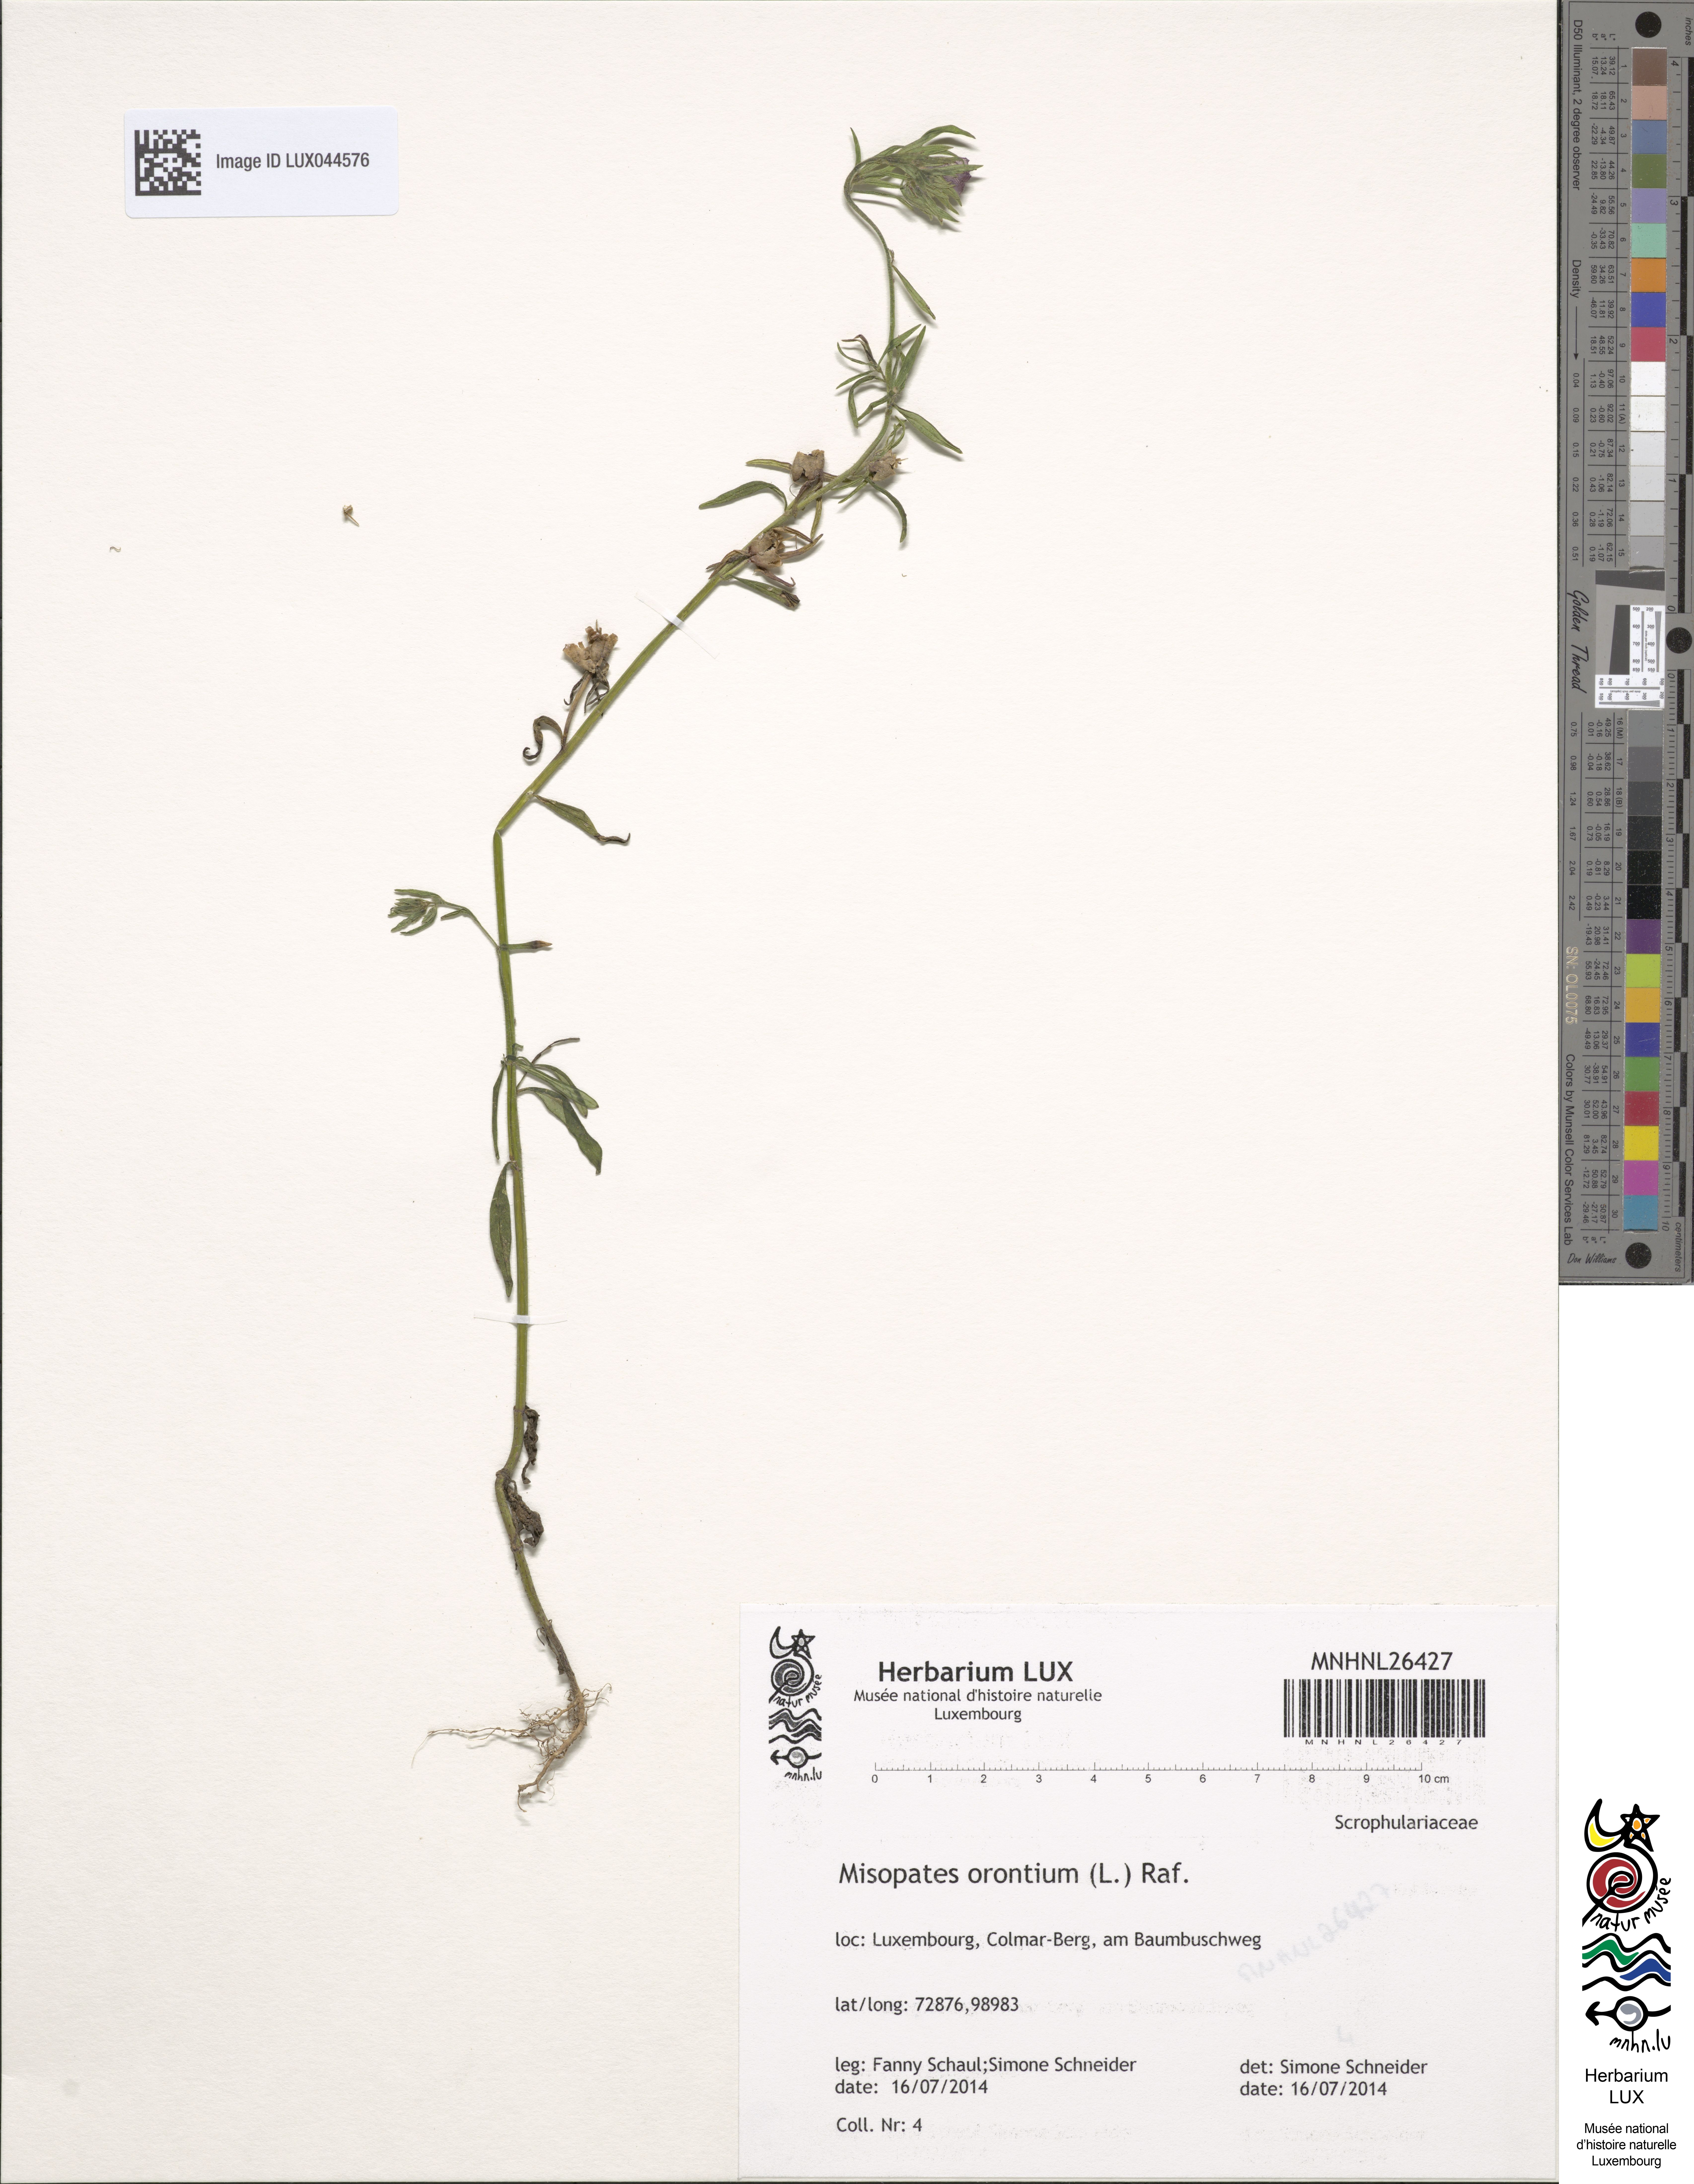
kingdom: Plantae
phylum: Tracheophyta
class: Magnoliopsida
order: Lamiales
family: Plantaginaceae
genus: Misopates
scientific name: Misopates orontium
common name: Weasel's-snout
